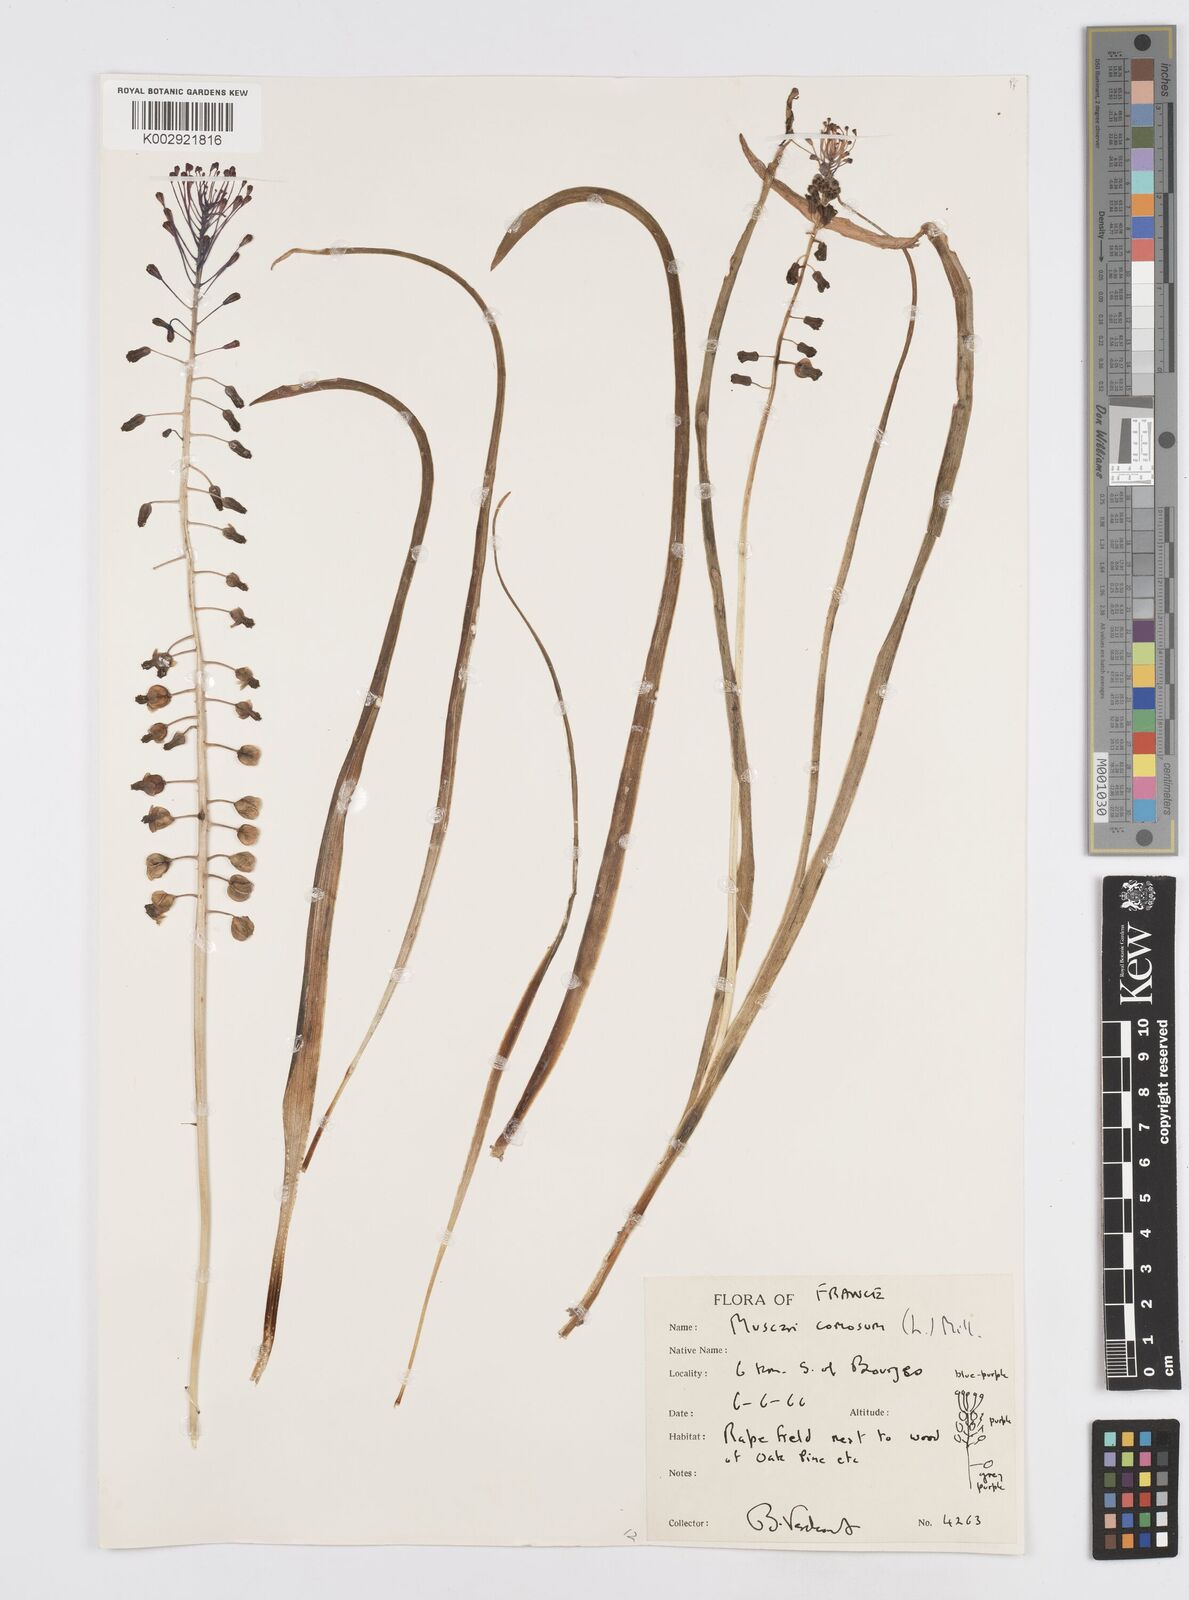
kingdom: Plantae
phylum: Tracheophyta
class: Liliopsida
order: Asparagales
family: Asparagaceae
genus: Muscari
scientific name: Muscari comosum
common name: Tassel hyacinth
